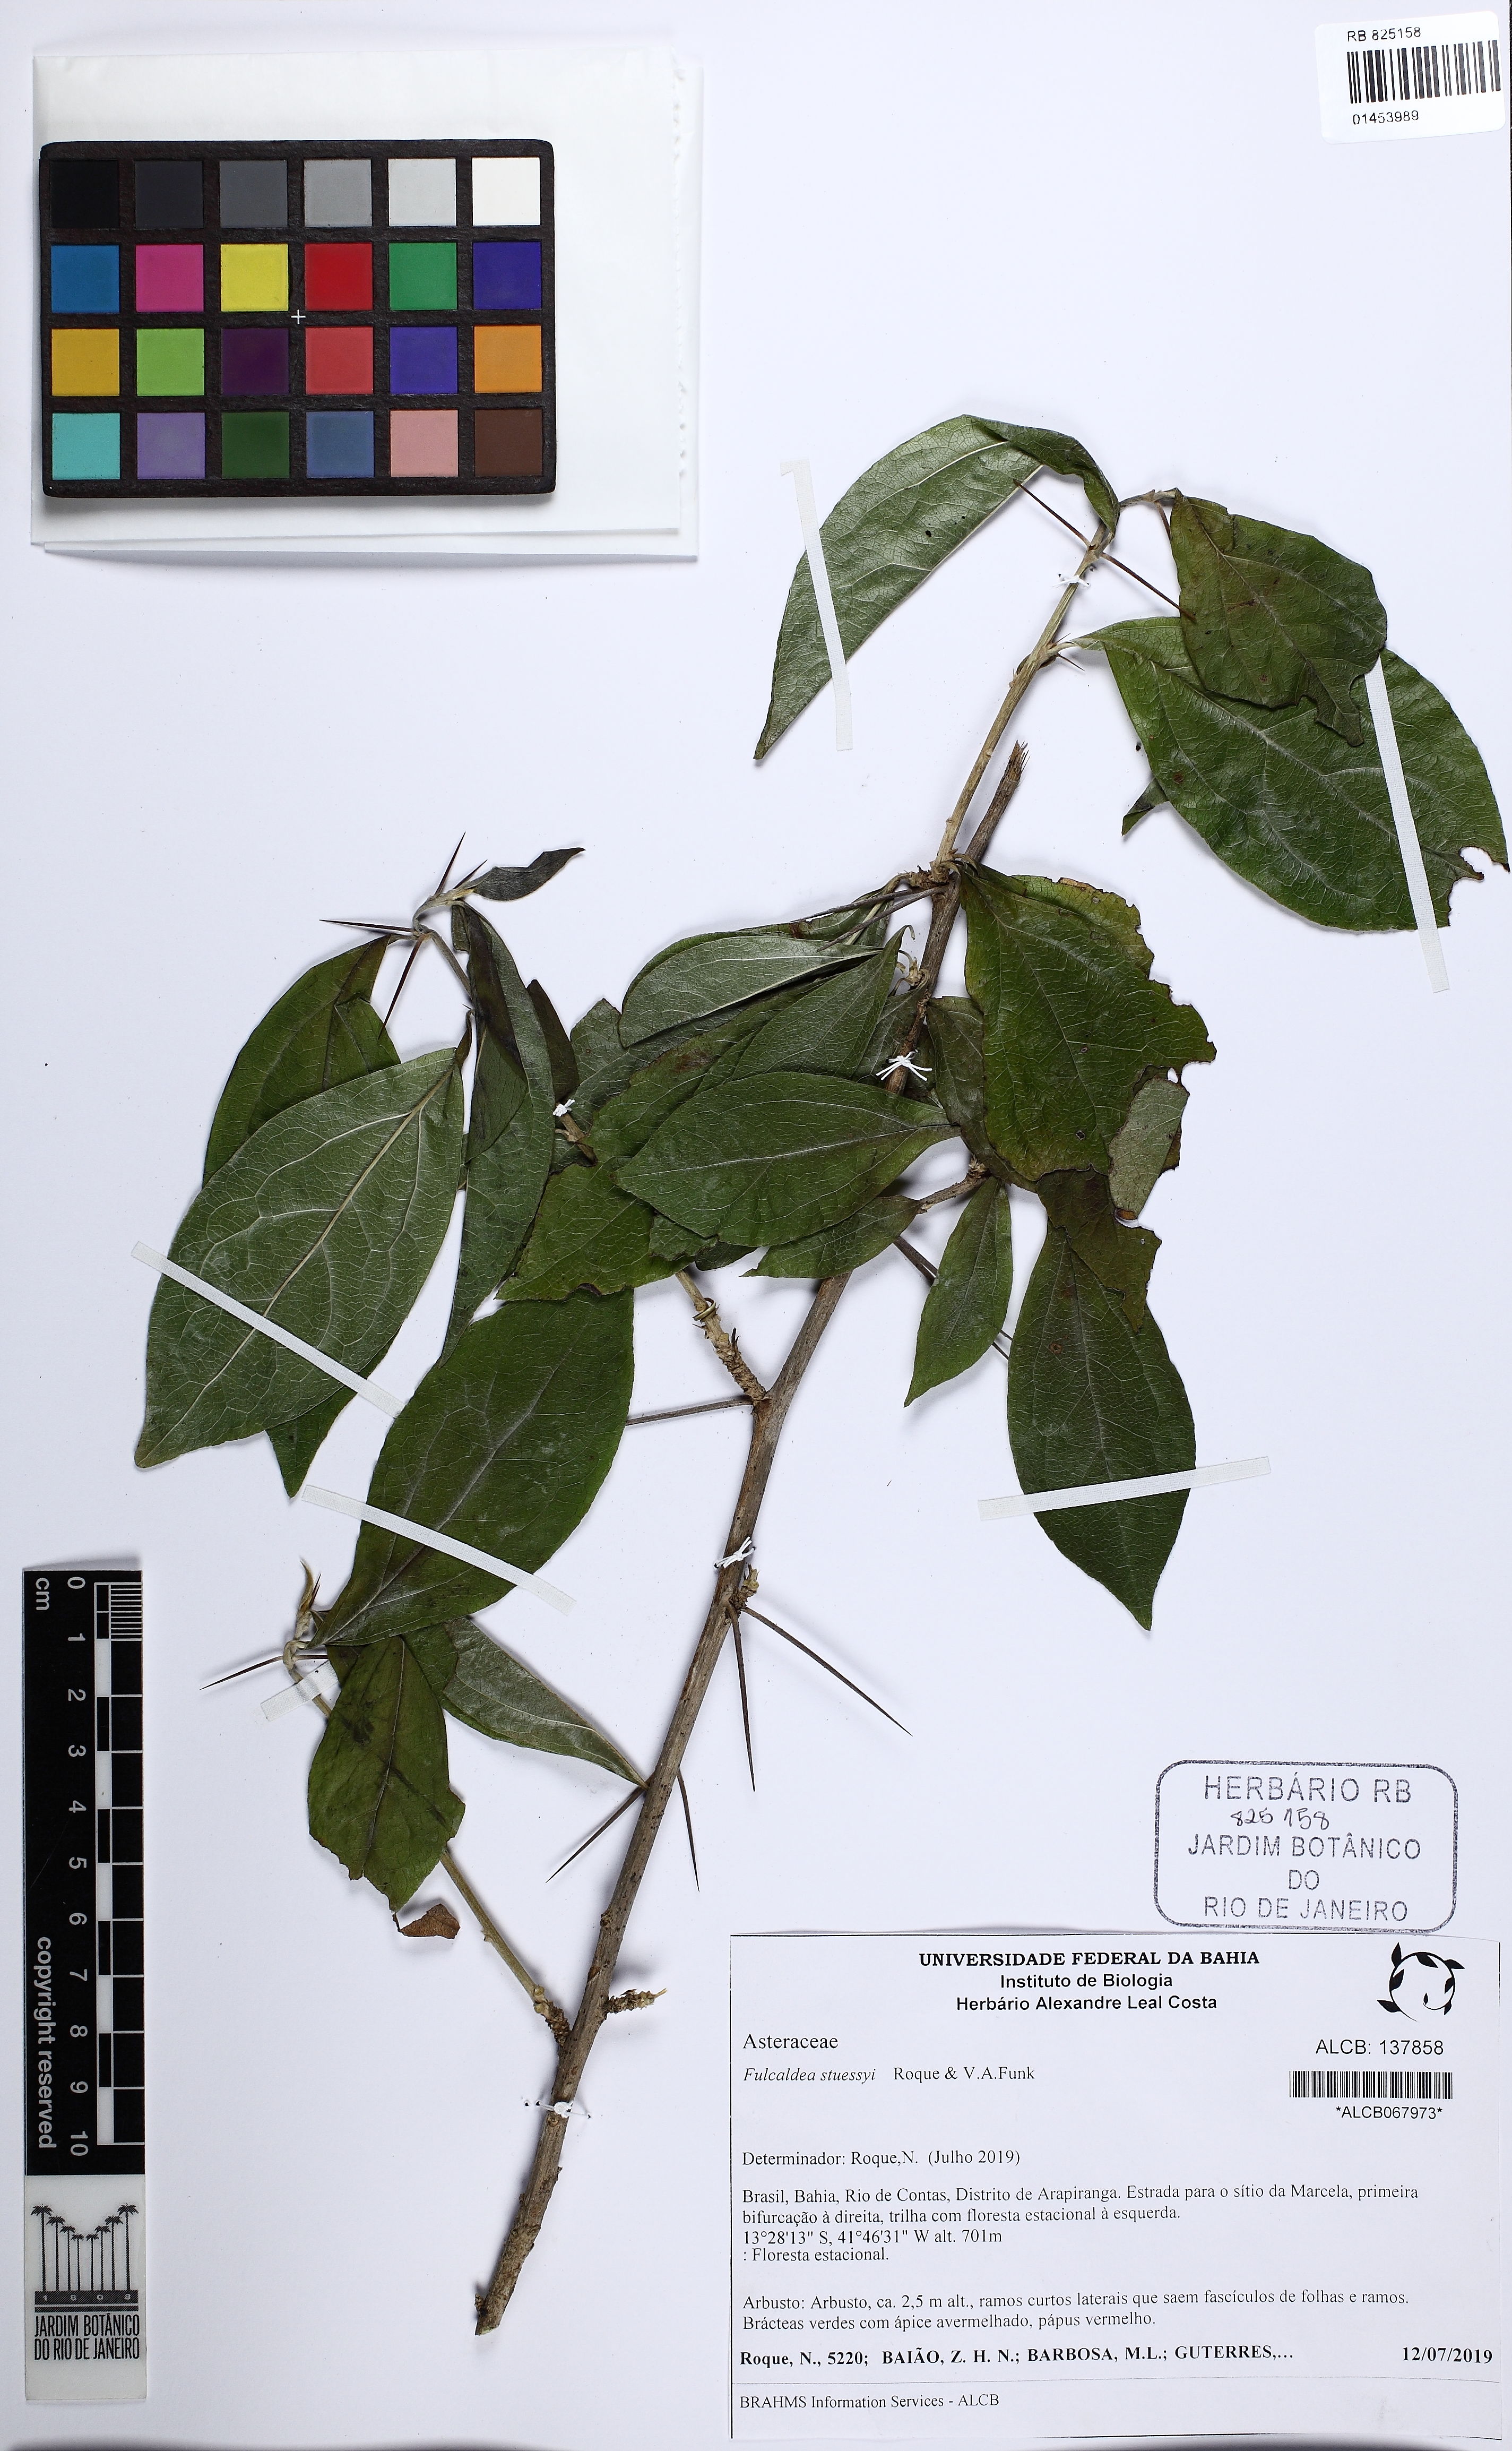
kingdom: Plantae
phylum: Tracheophyta
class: Magnoliopsida
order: Asterales
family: Asteraceae
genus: Fulcaldea
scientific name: Fulcaldea stuessyi
